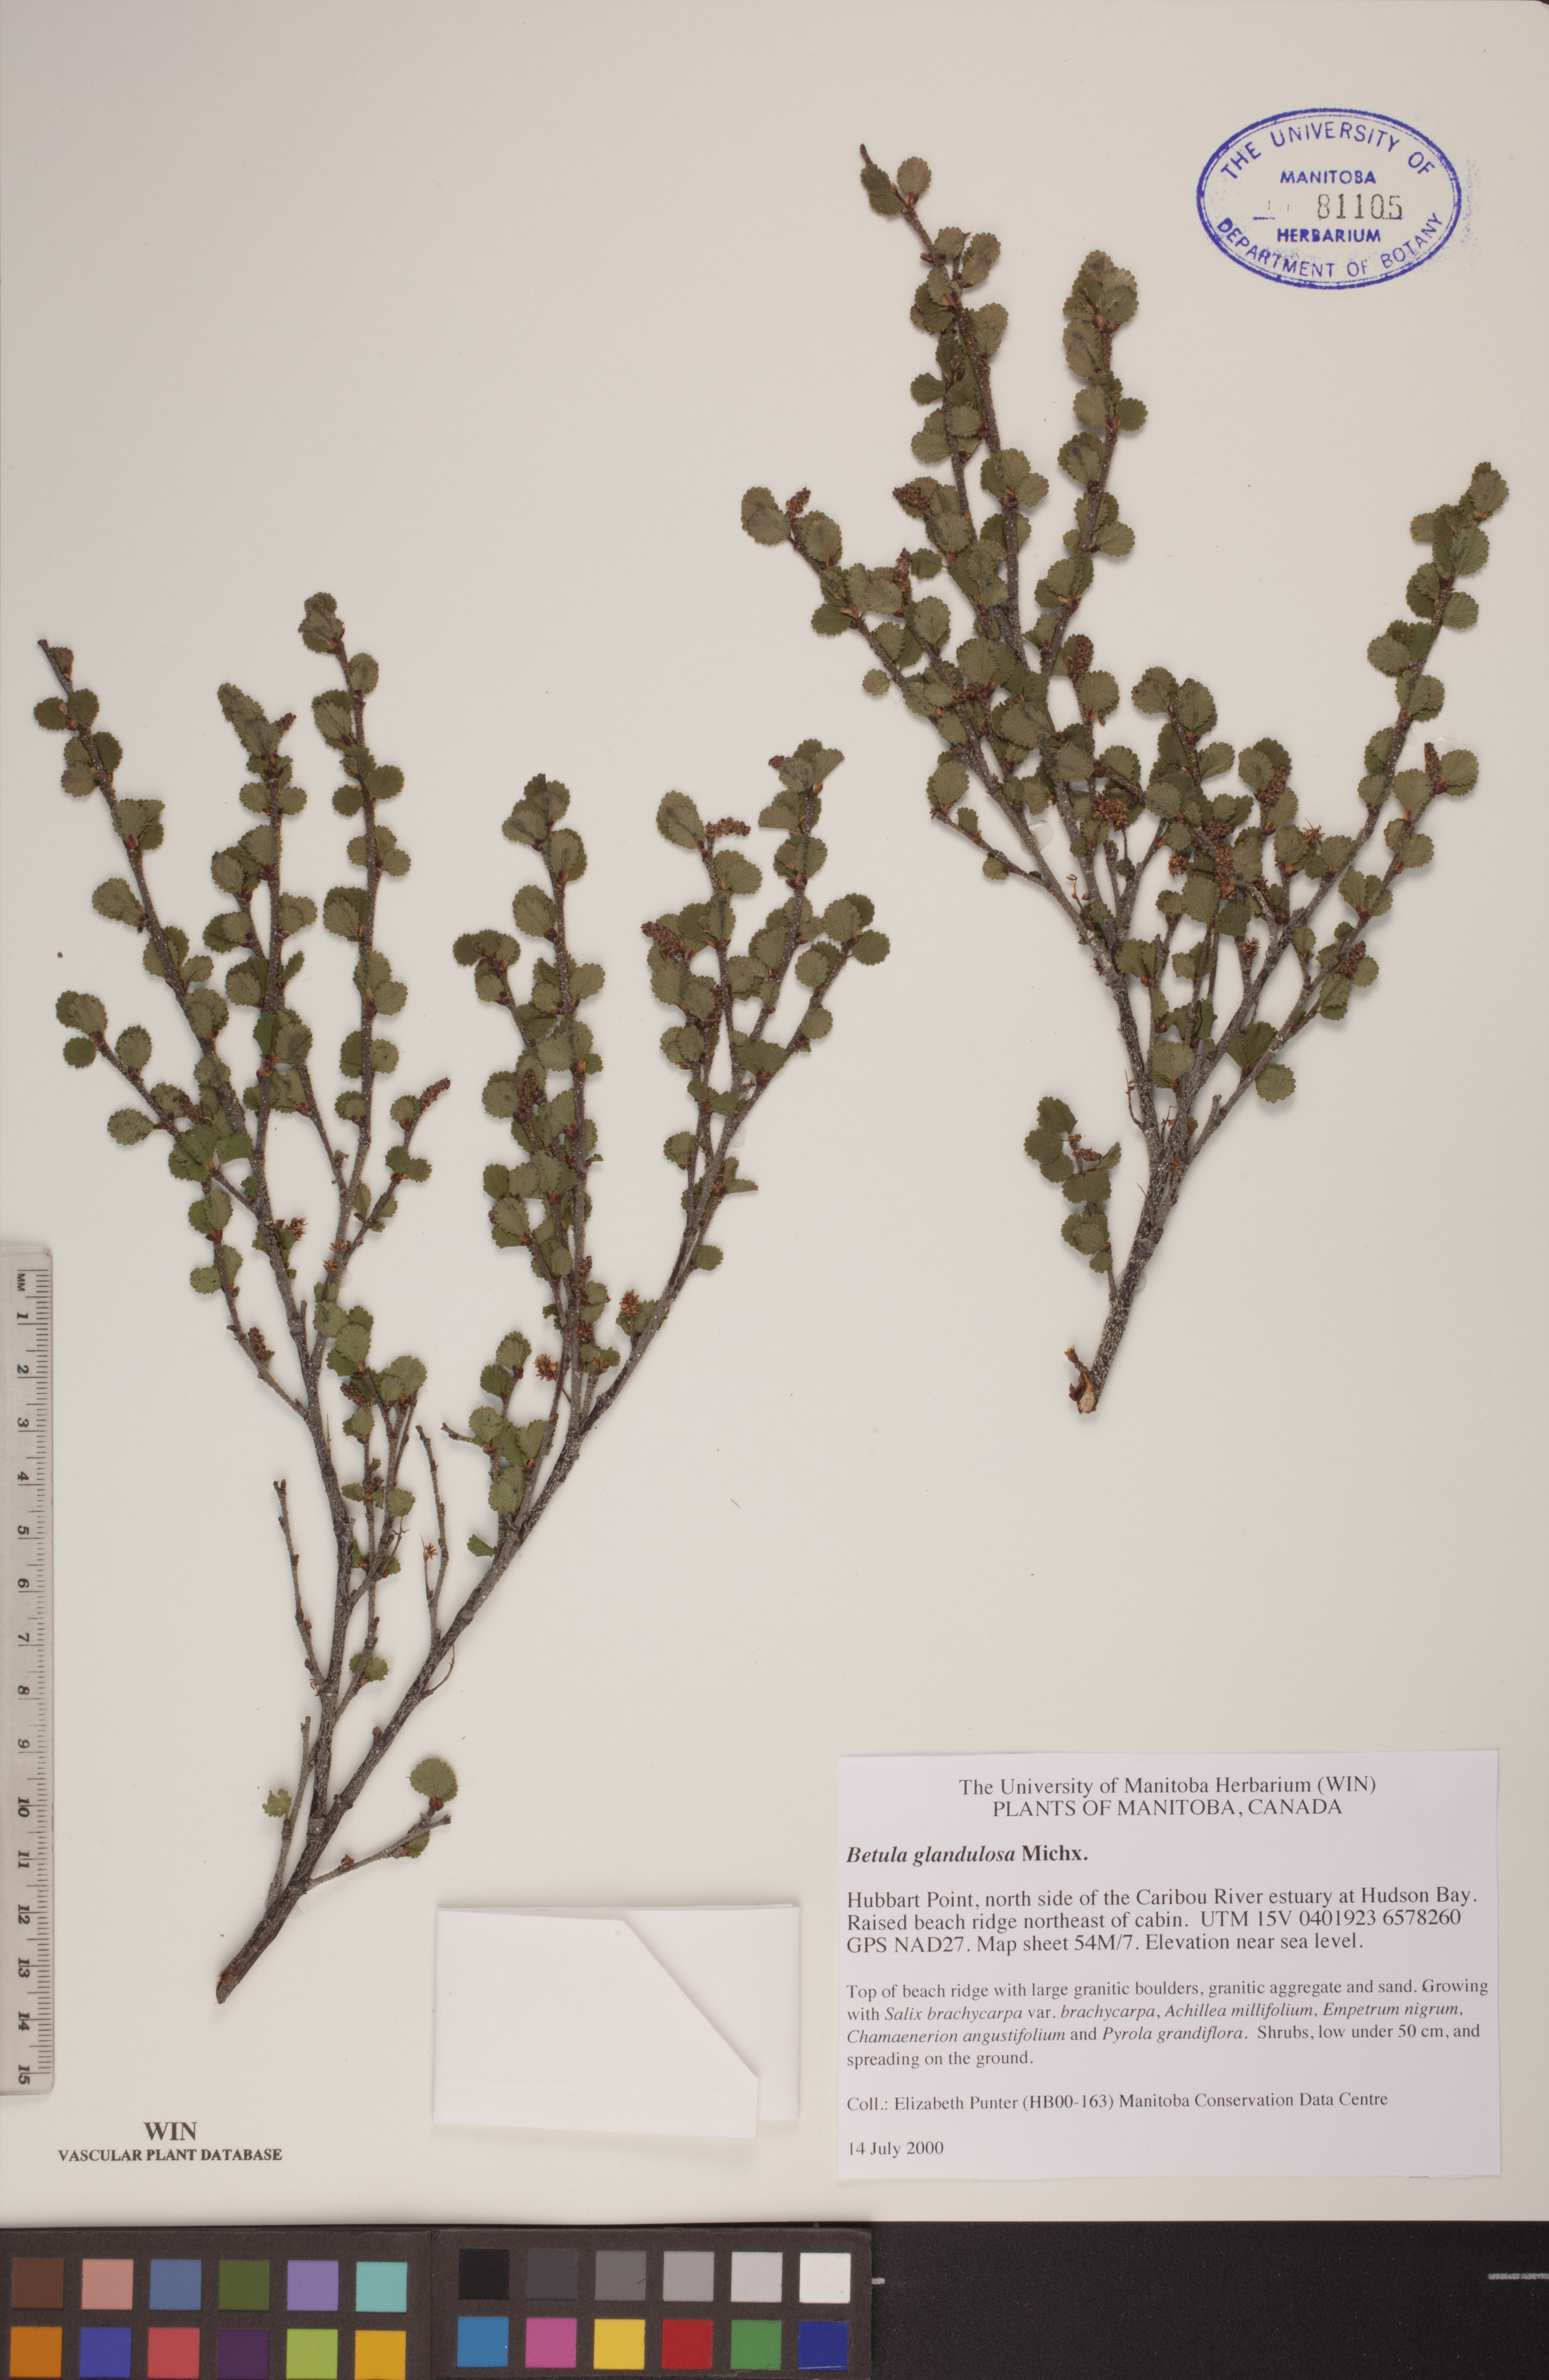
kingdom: Plantae
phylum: Tracheophyta
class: Magnoliopsida
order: Fagales
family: Betulaceae
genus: Betula
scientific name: Betula glandulosa
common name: Dwarf birch
